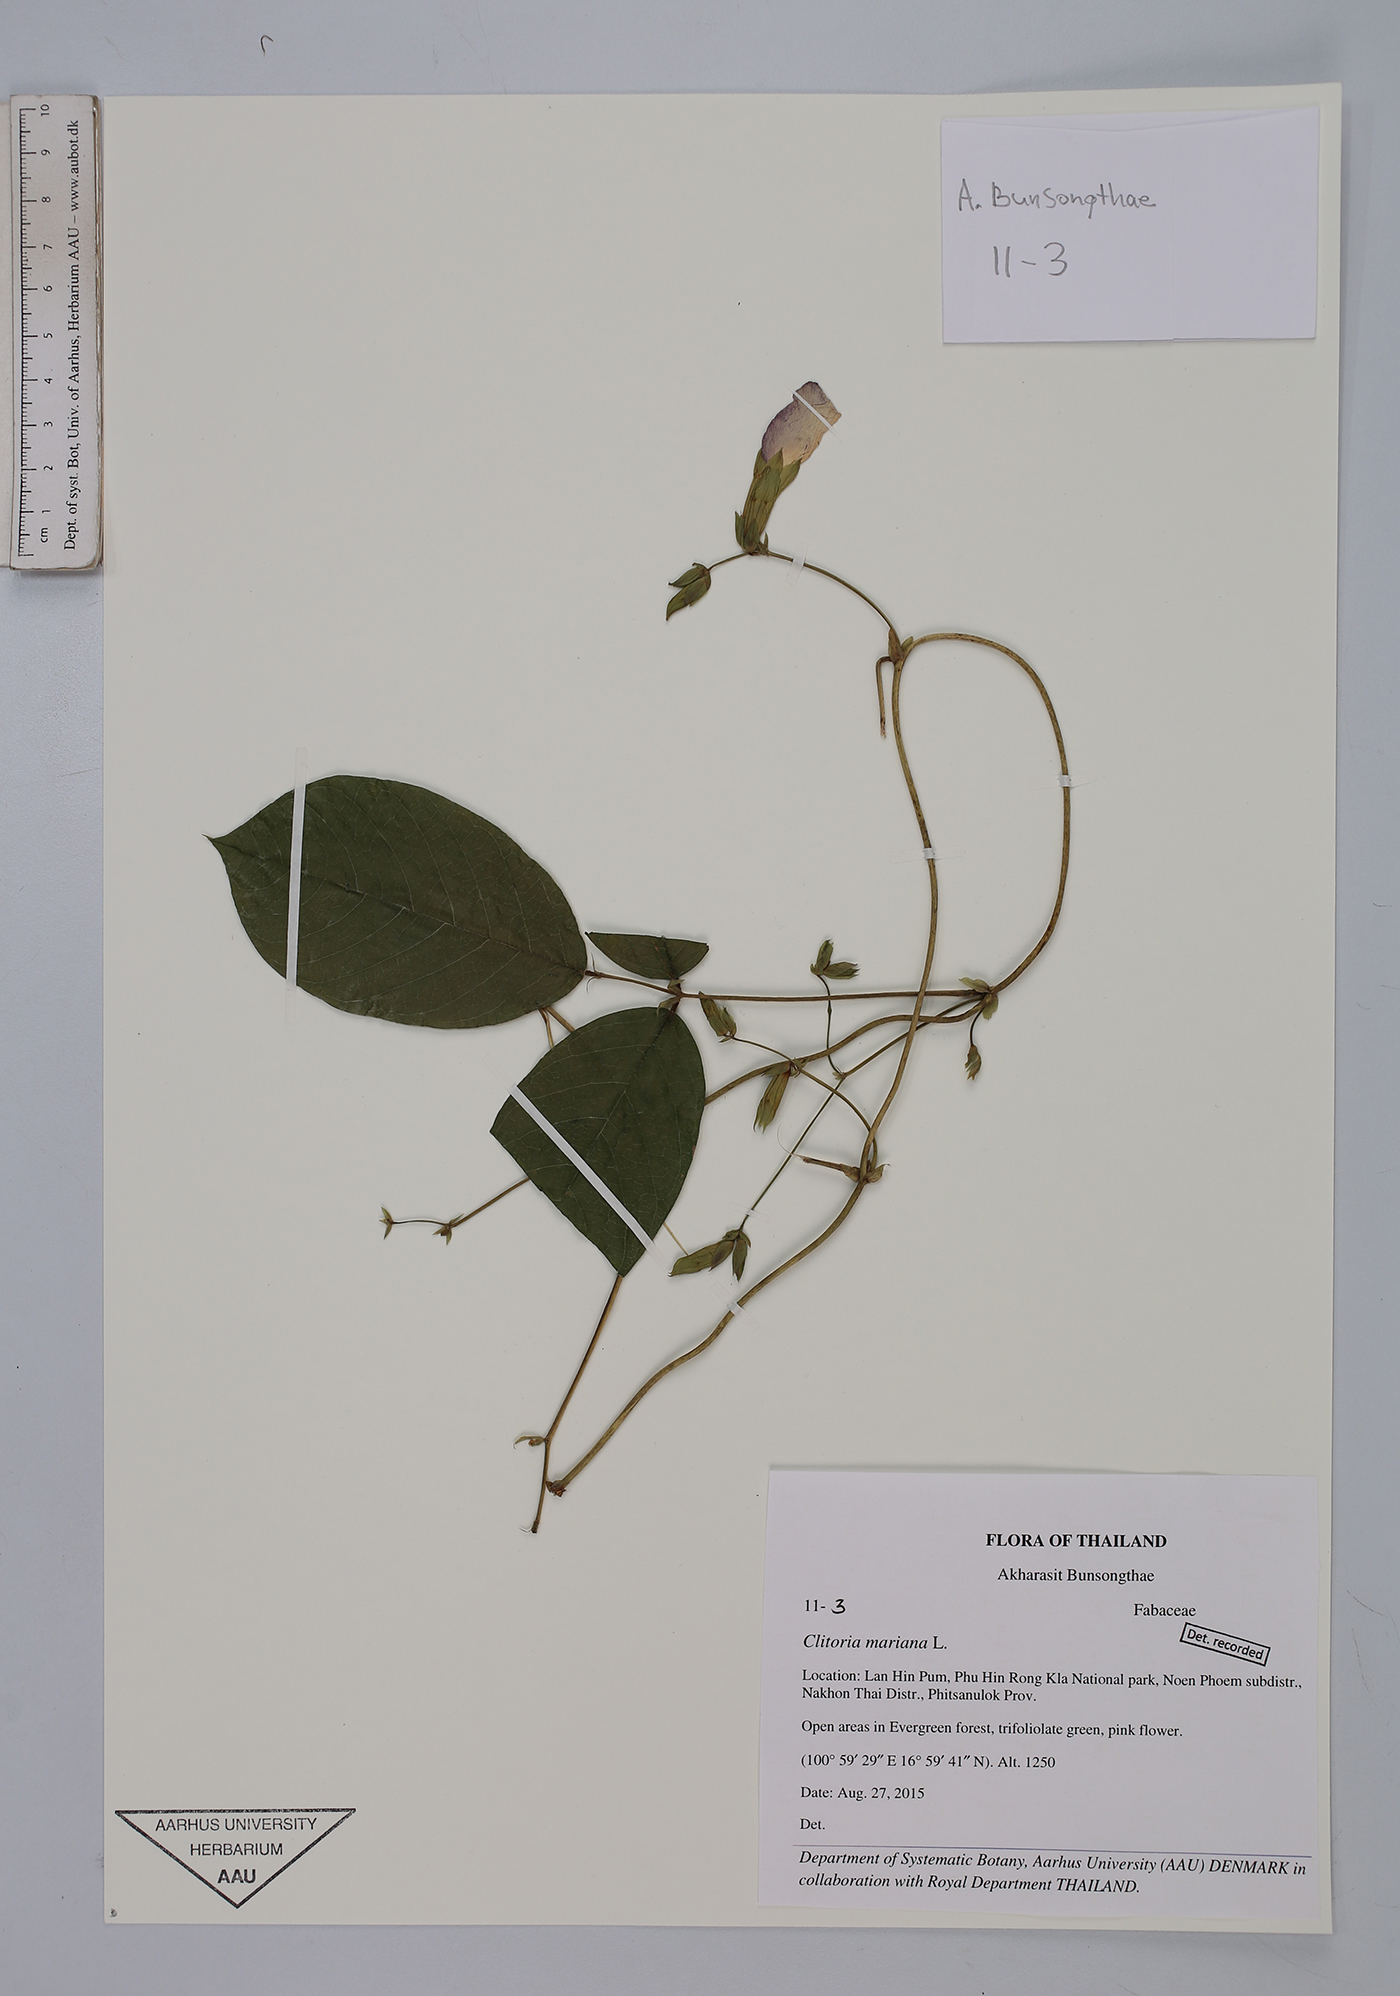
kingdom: Plantae
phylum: Tracheophyta
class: Magnoliopsida
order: Fabales
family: Fabaceae
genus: Clitoria
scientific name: Clitoria mariana
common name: Butterfly-pea
